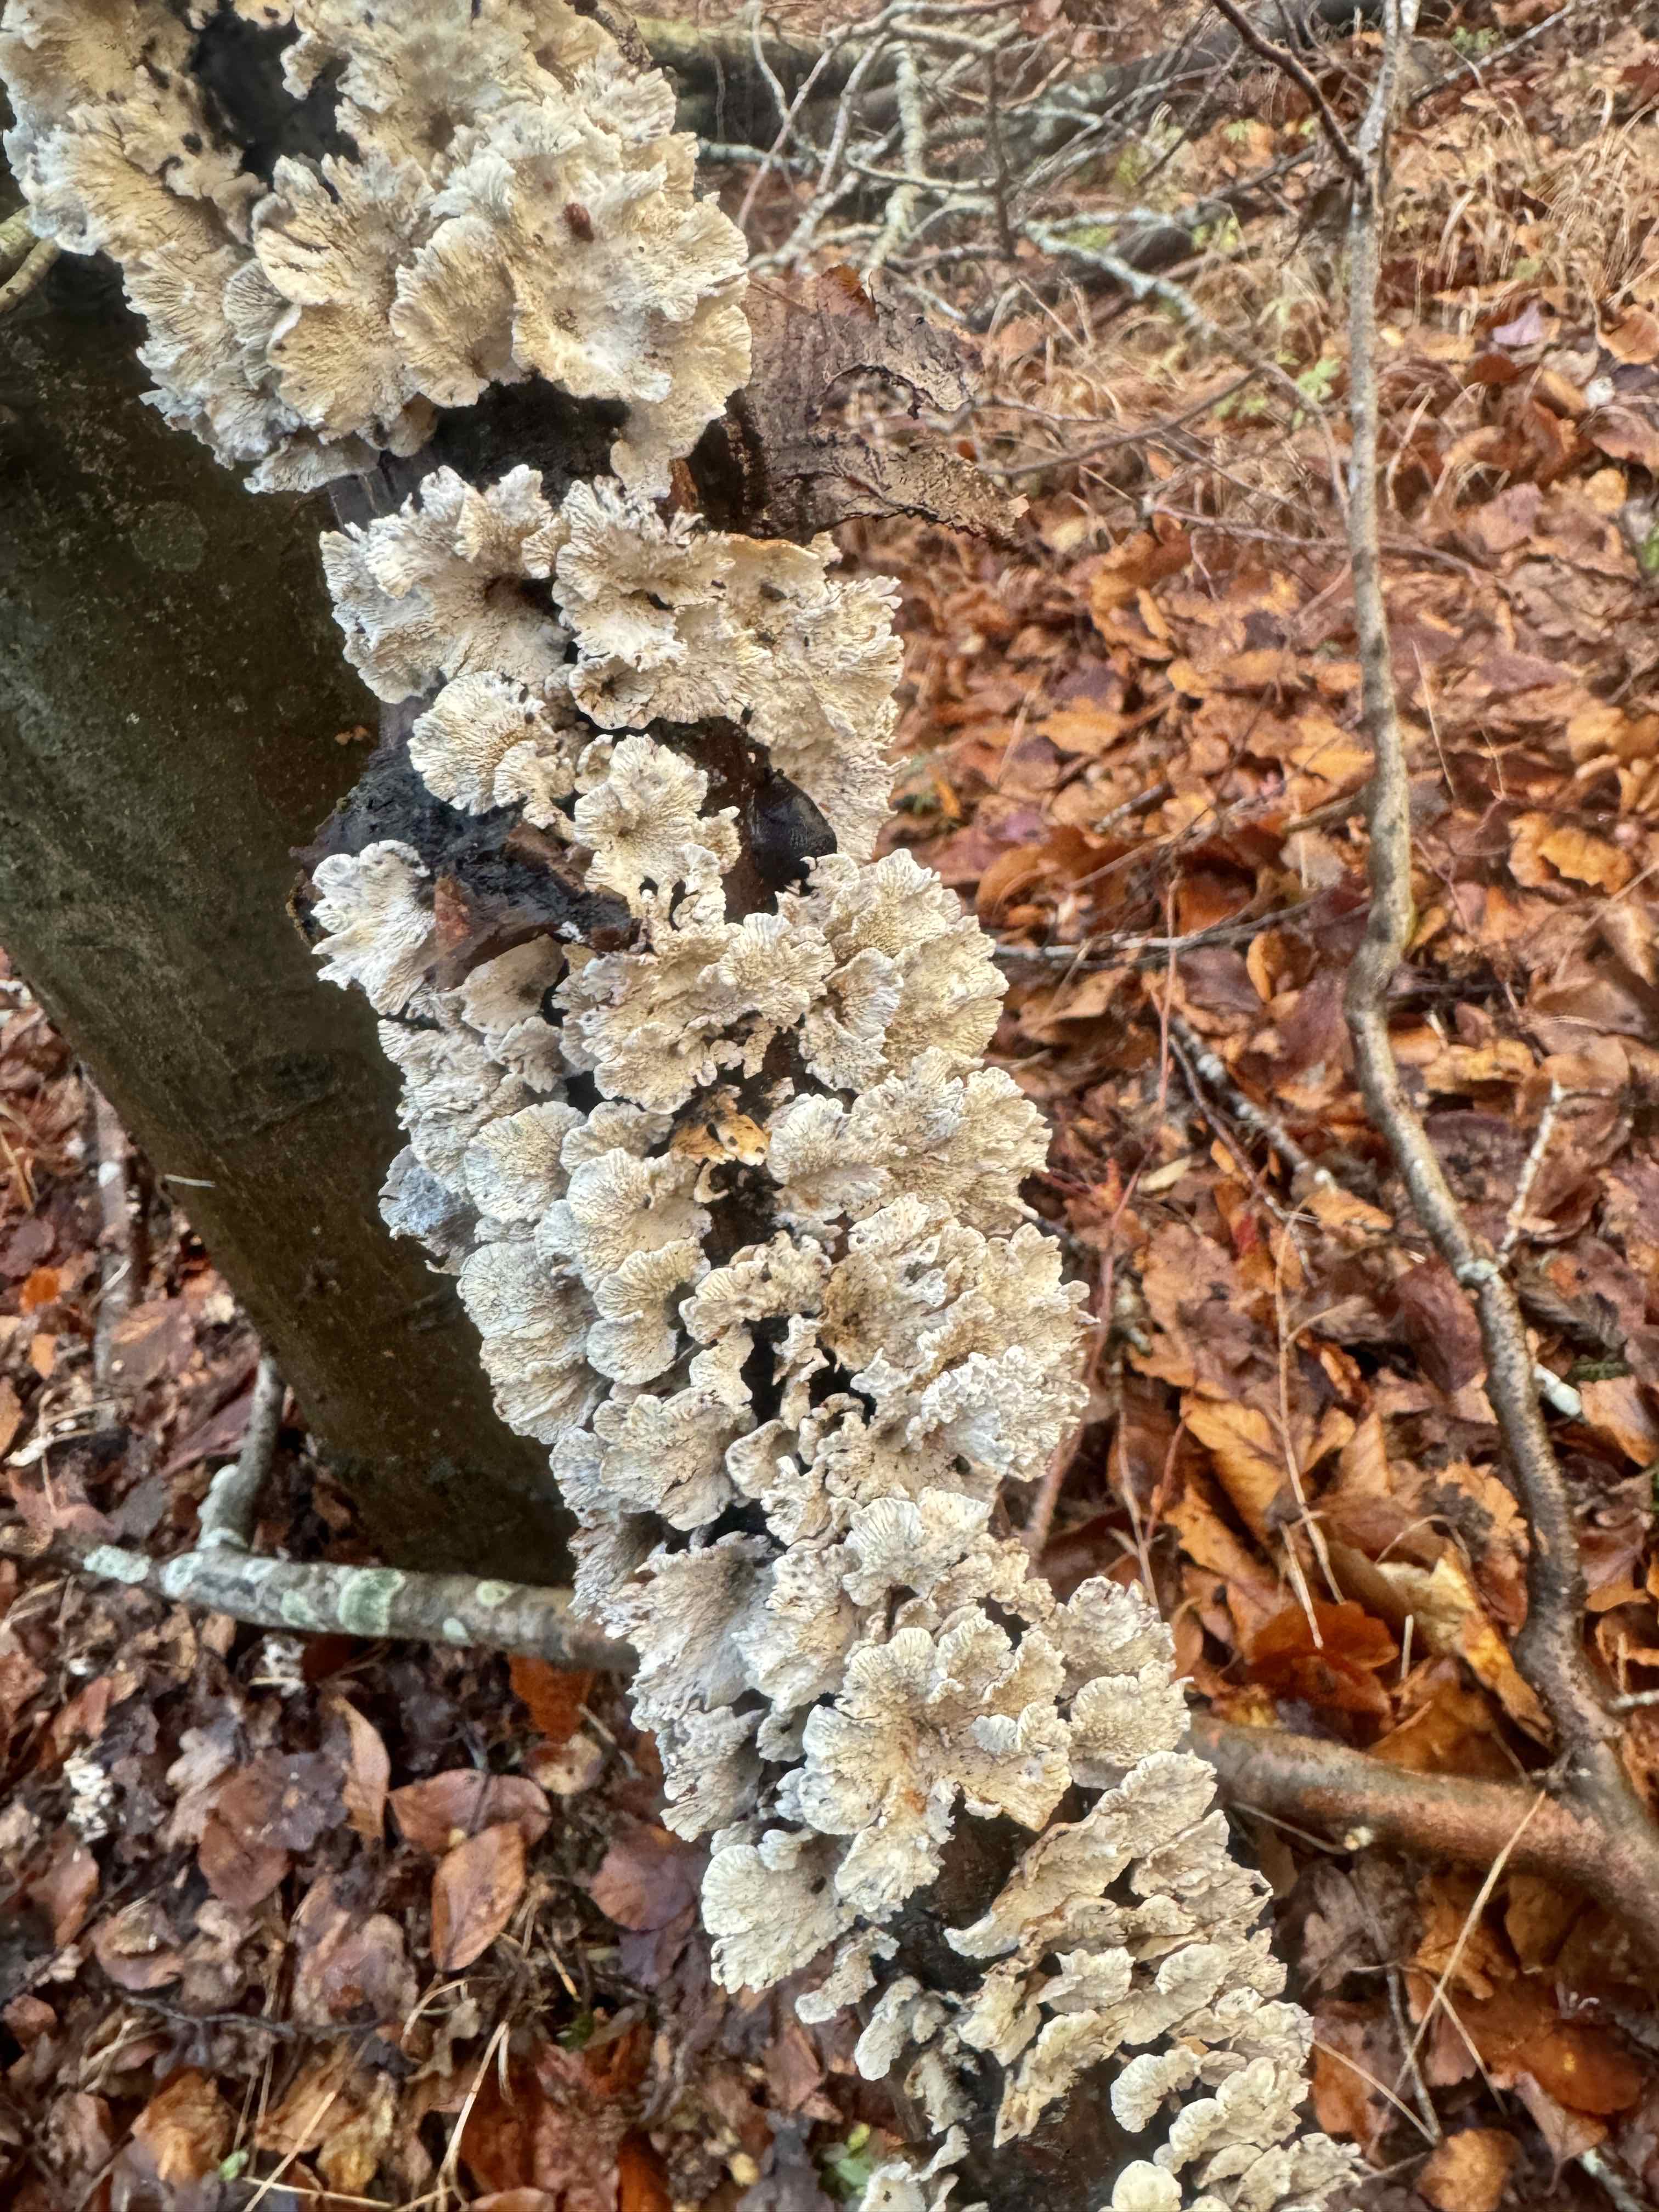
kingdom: Fungi
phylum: Basidiomycota
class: Agaricomycetes
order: Amylocorticiales
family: Amylocorticiaceae
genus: Plicaturopsis
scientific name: Plicaturopsis crispa
